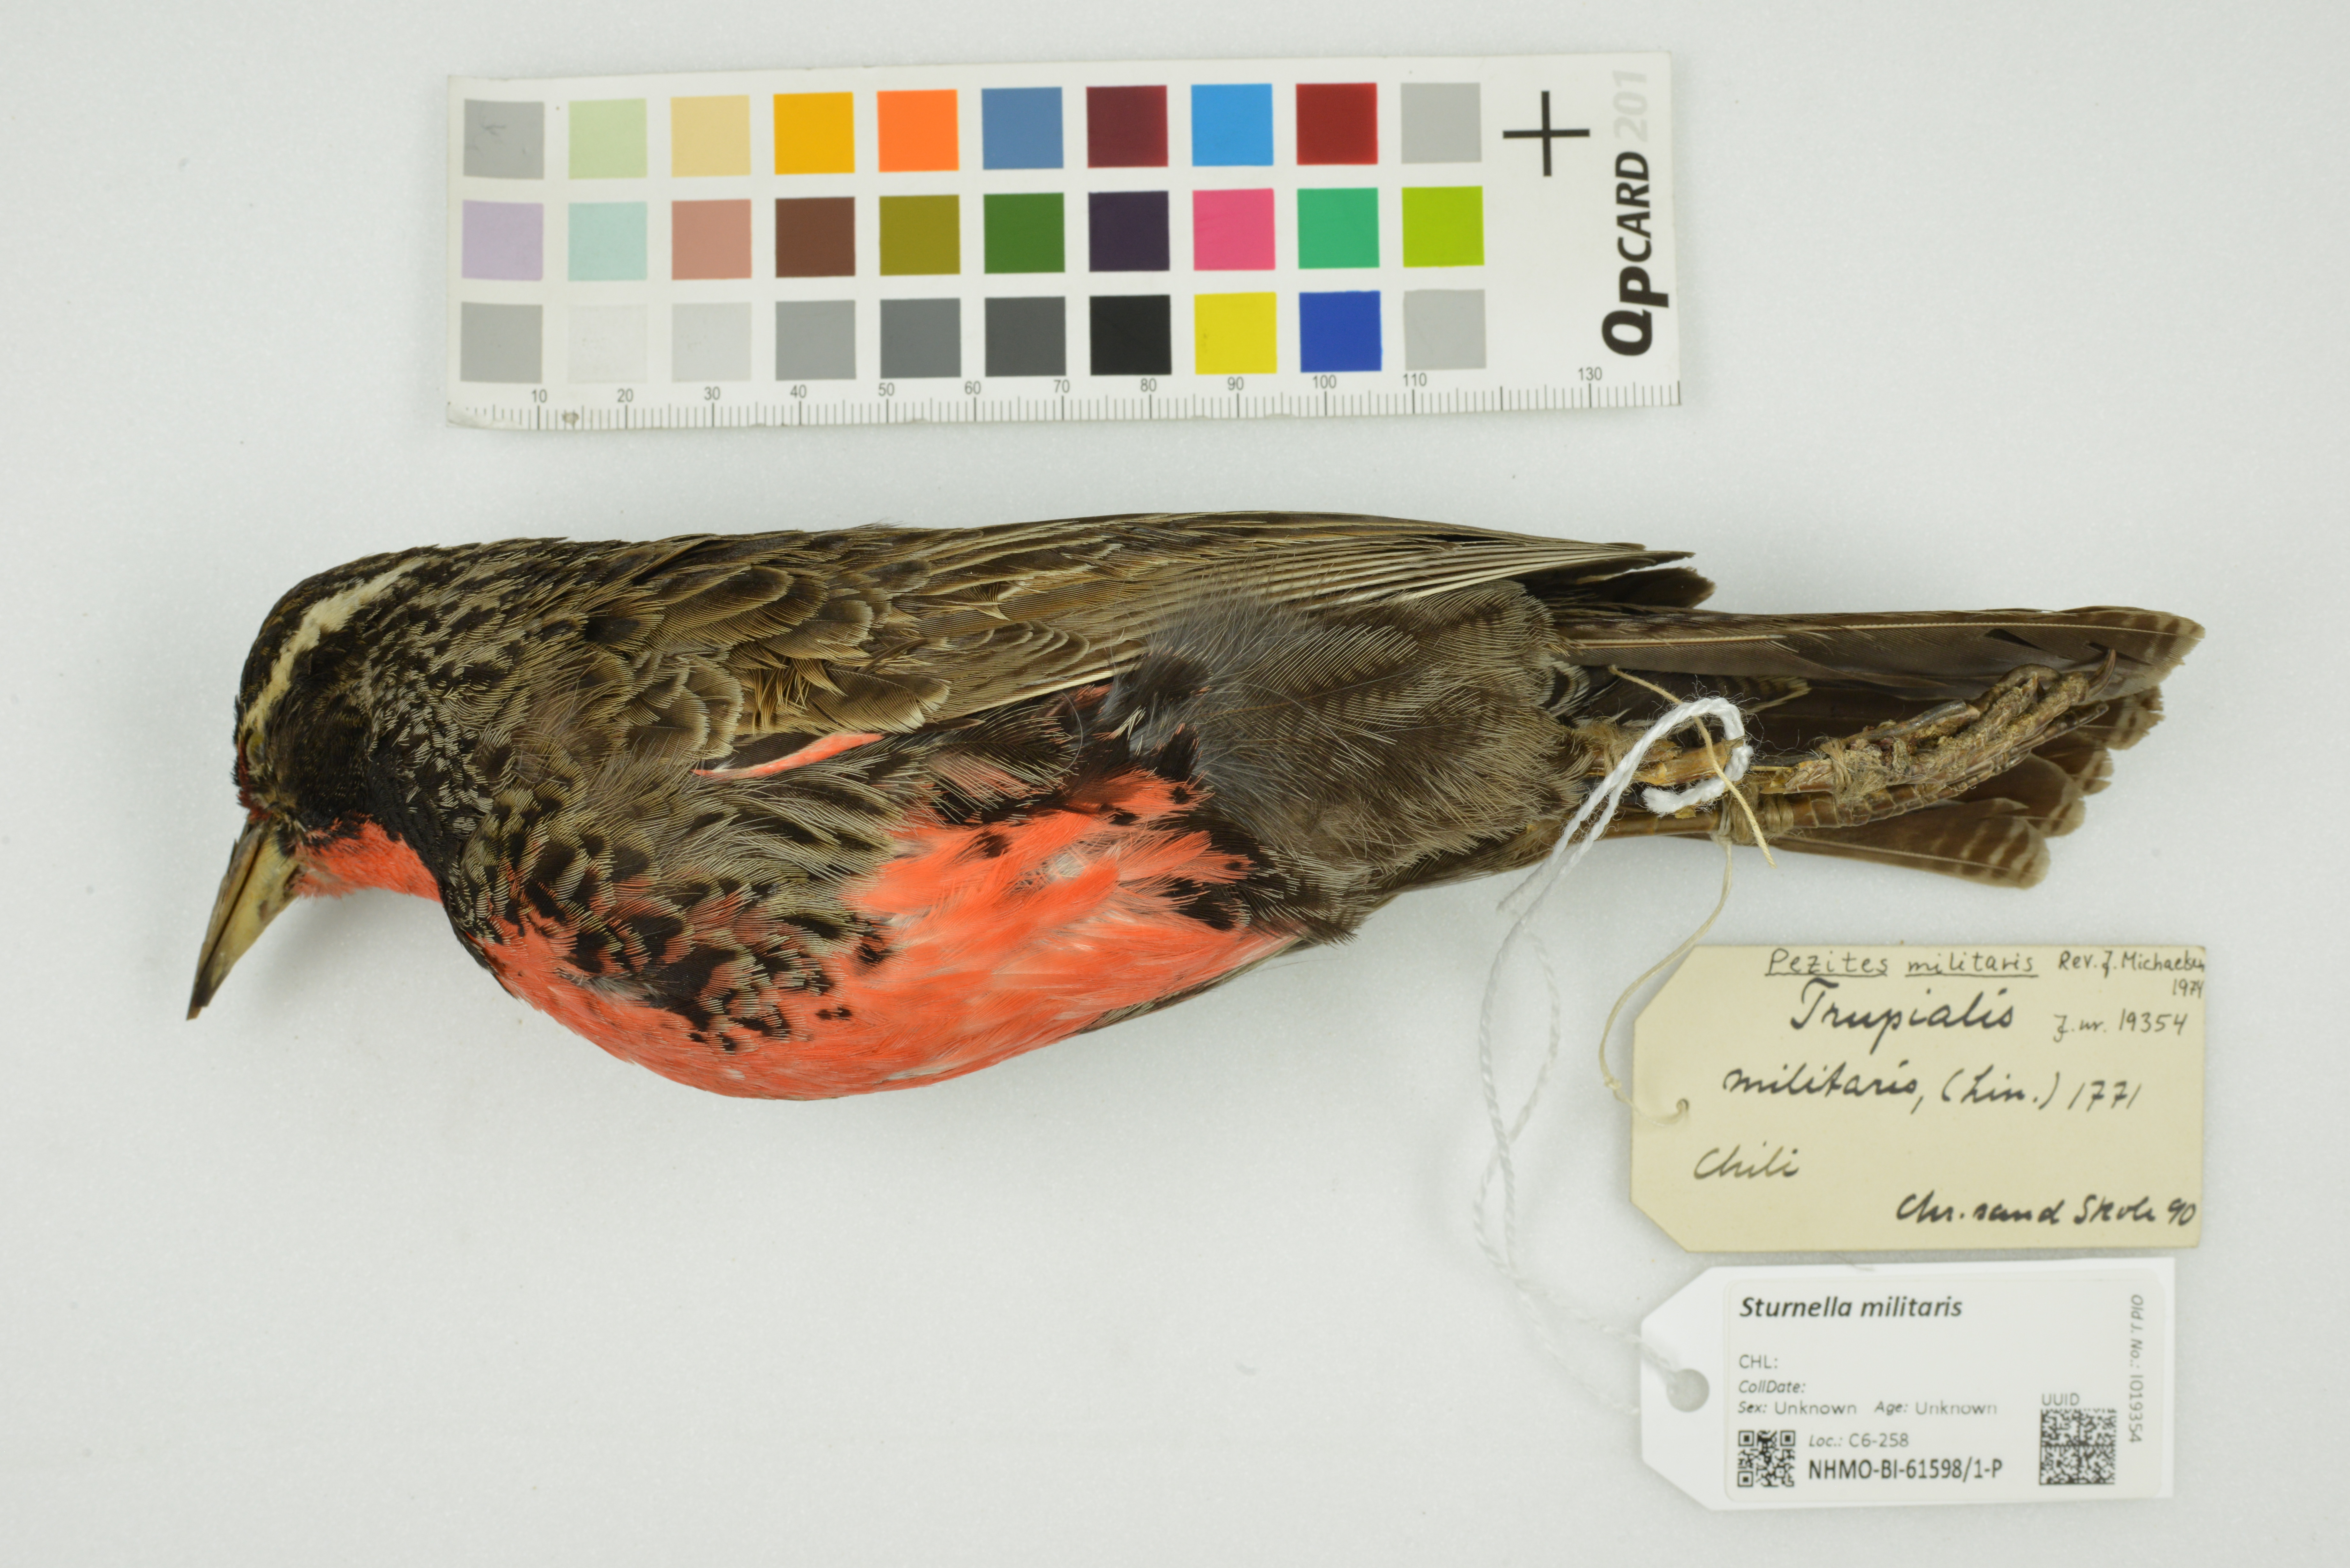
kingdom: Animalia
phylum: Chordata
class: Aves
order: Passeriformes
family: Icteridae
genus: Sturnella
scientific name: Sturnella militaris
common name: Red-breasted blackbird
